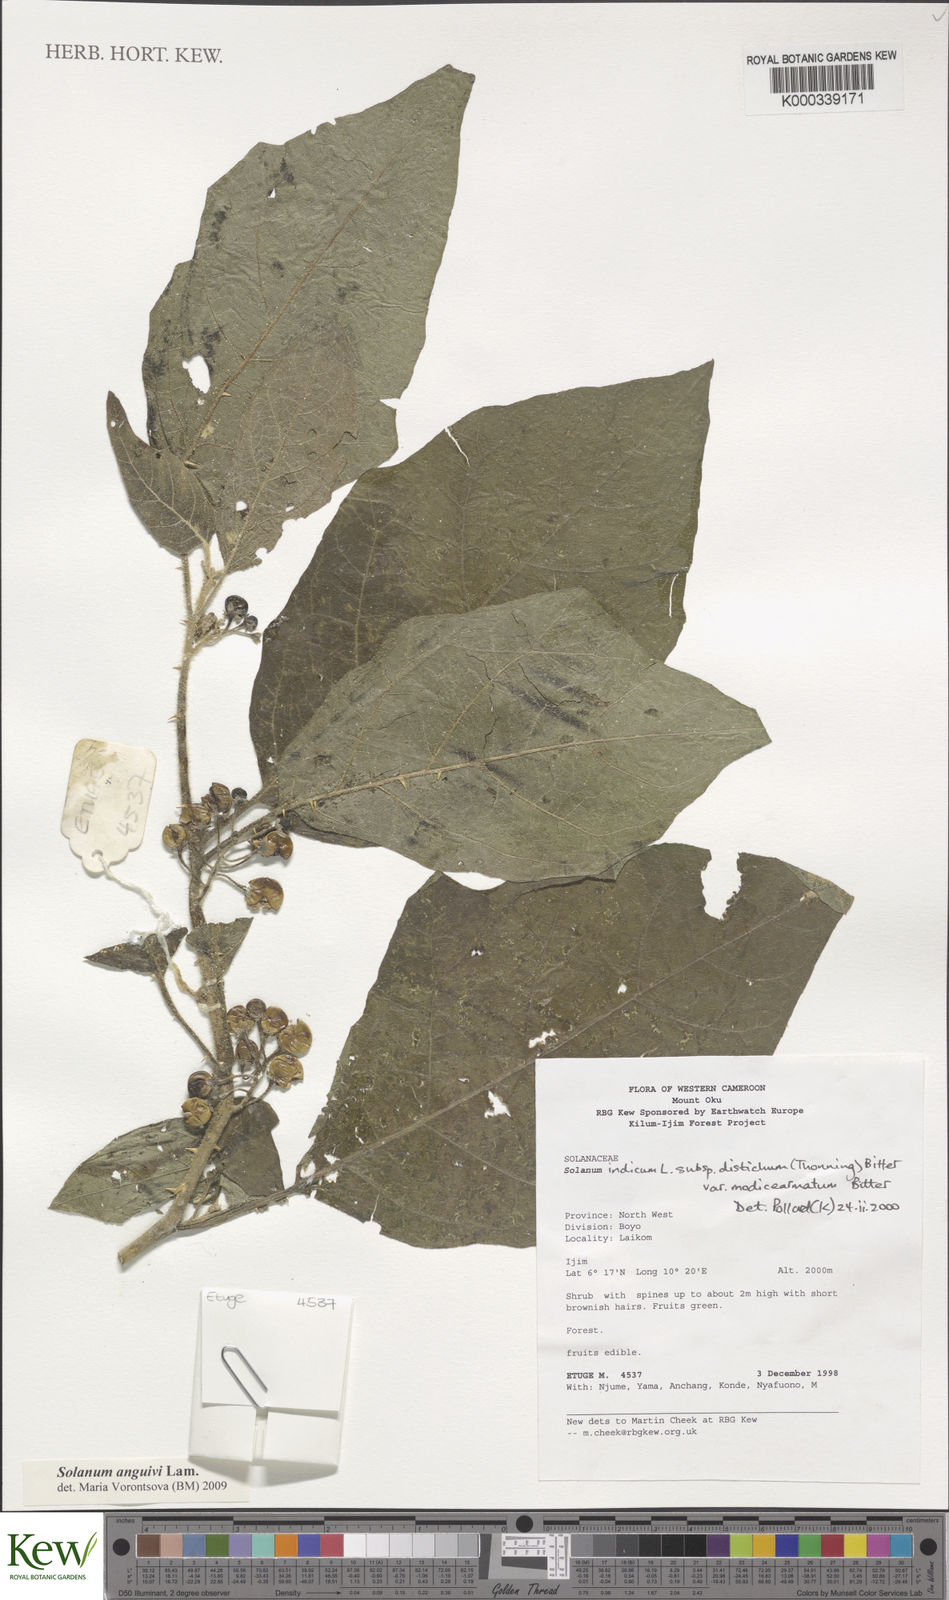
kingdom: Plantae
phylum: Tracheophyta
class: Magnoliopsida
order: Solanales
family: Solanaceae
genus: Solanum
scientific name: Solanum violaceum
